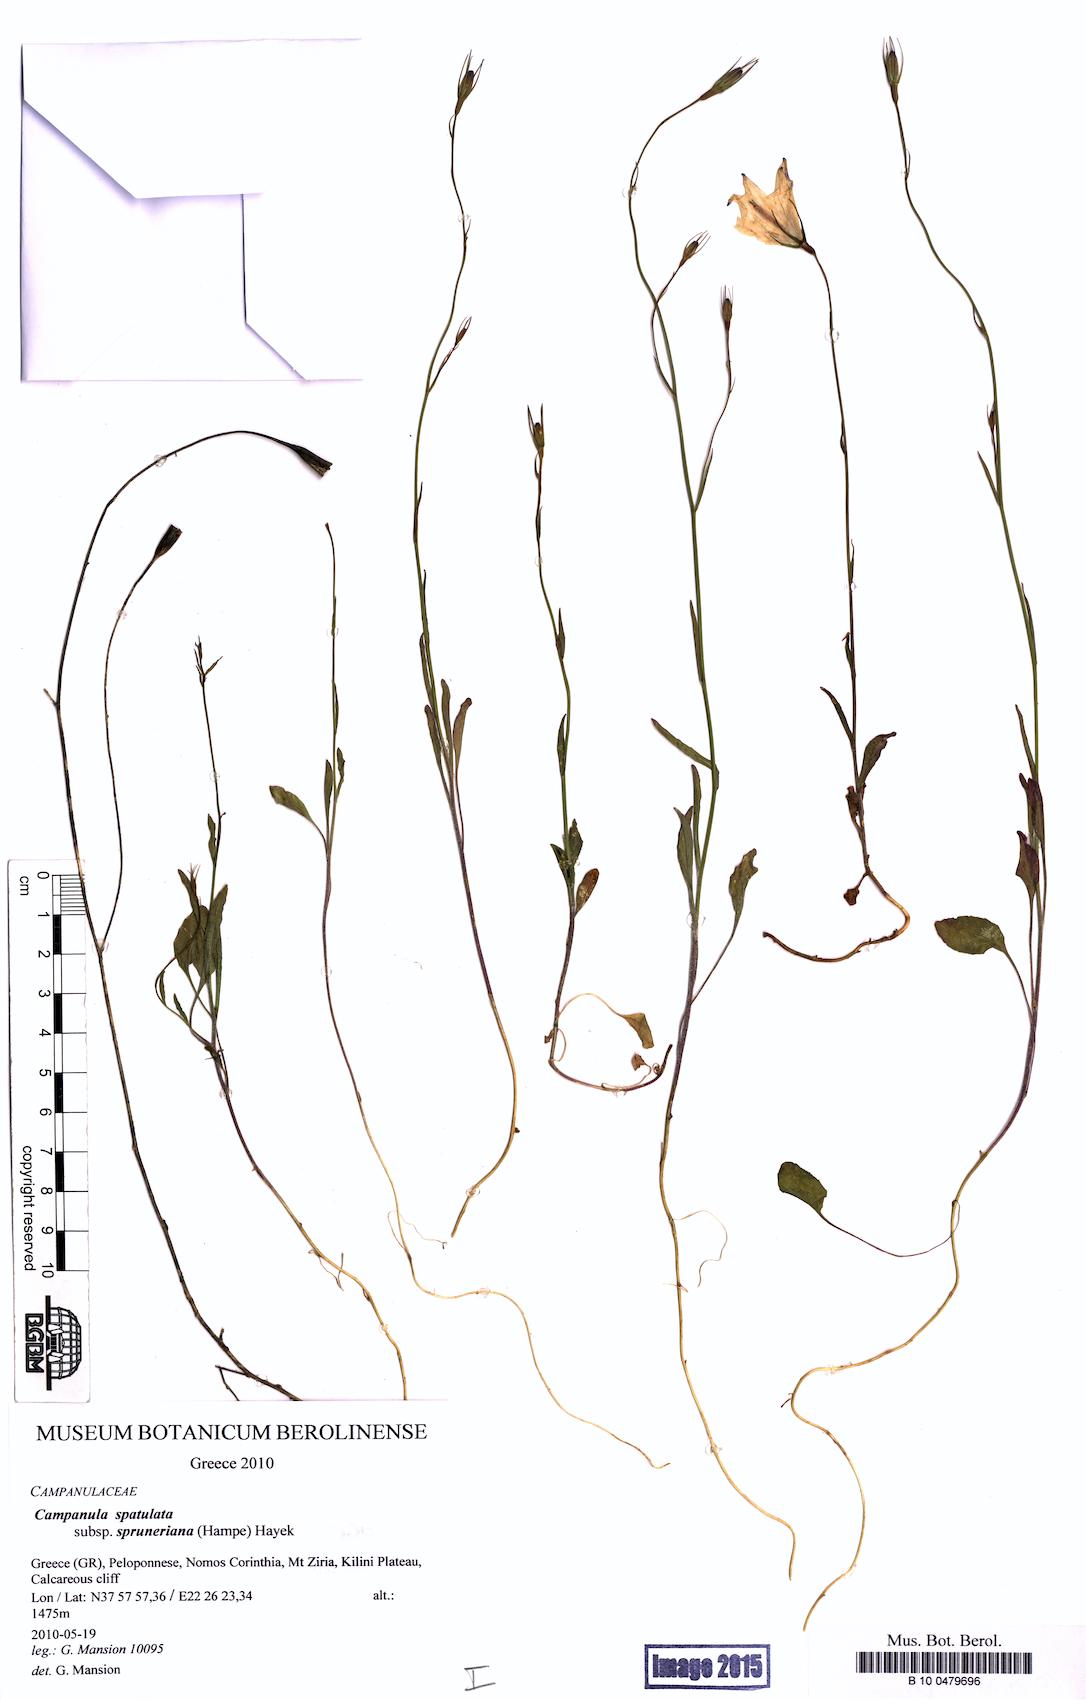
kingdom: Plantae
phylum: Tracheophyta
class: Magnoliopsida
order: Asterales
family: Campanulaceae
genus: Campanula
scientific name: Campanula spatulata
